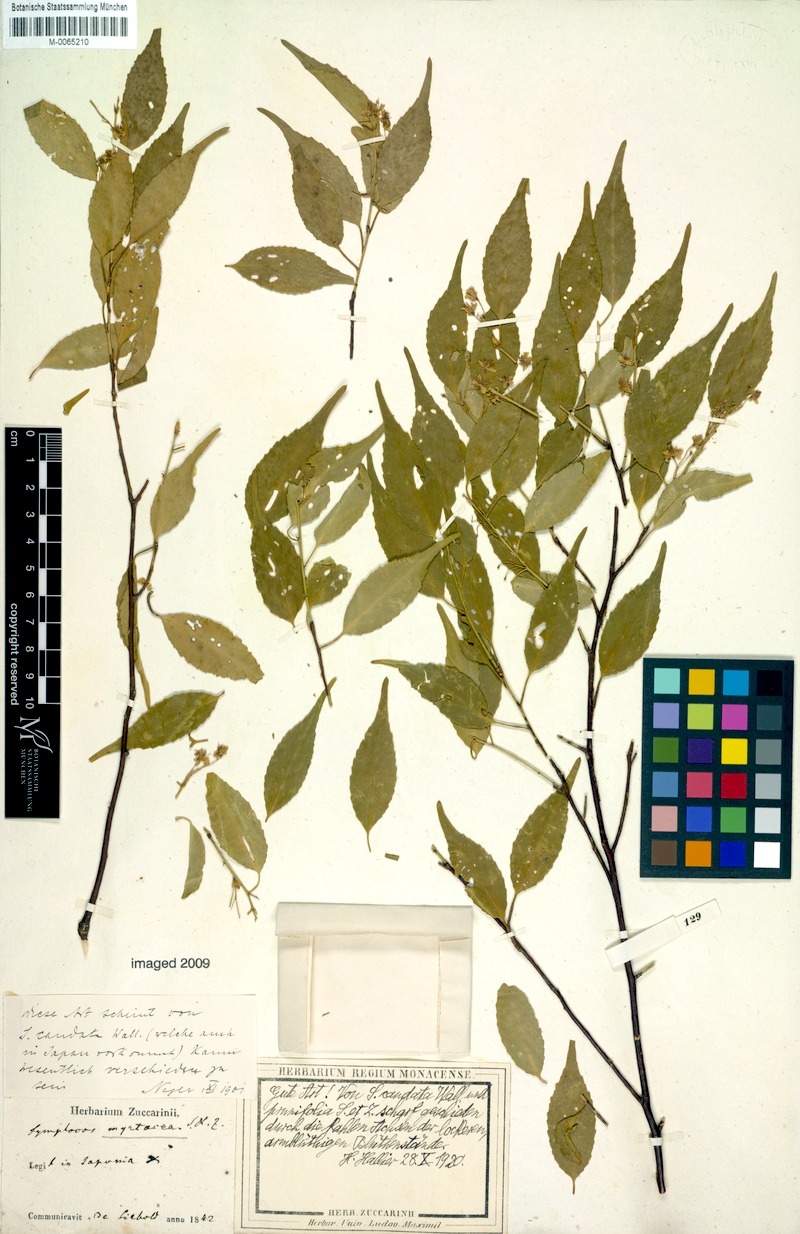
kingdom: Plantae
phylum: Tracheophyta
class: Magnoliopsida
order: Ericales
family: Symplocaceae
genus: Symplocos
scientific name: Symplocos sumuntia
